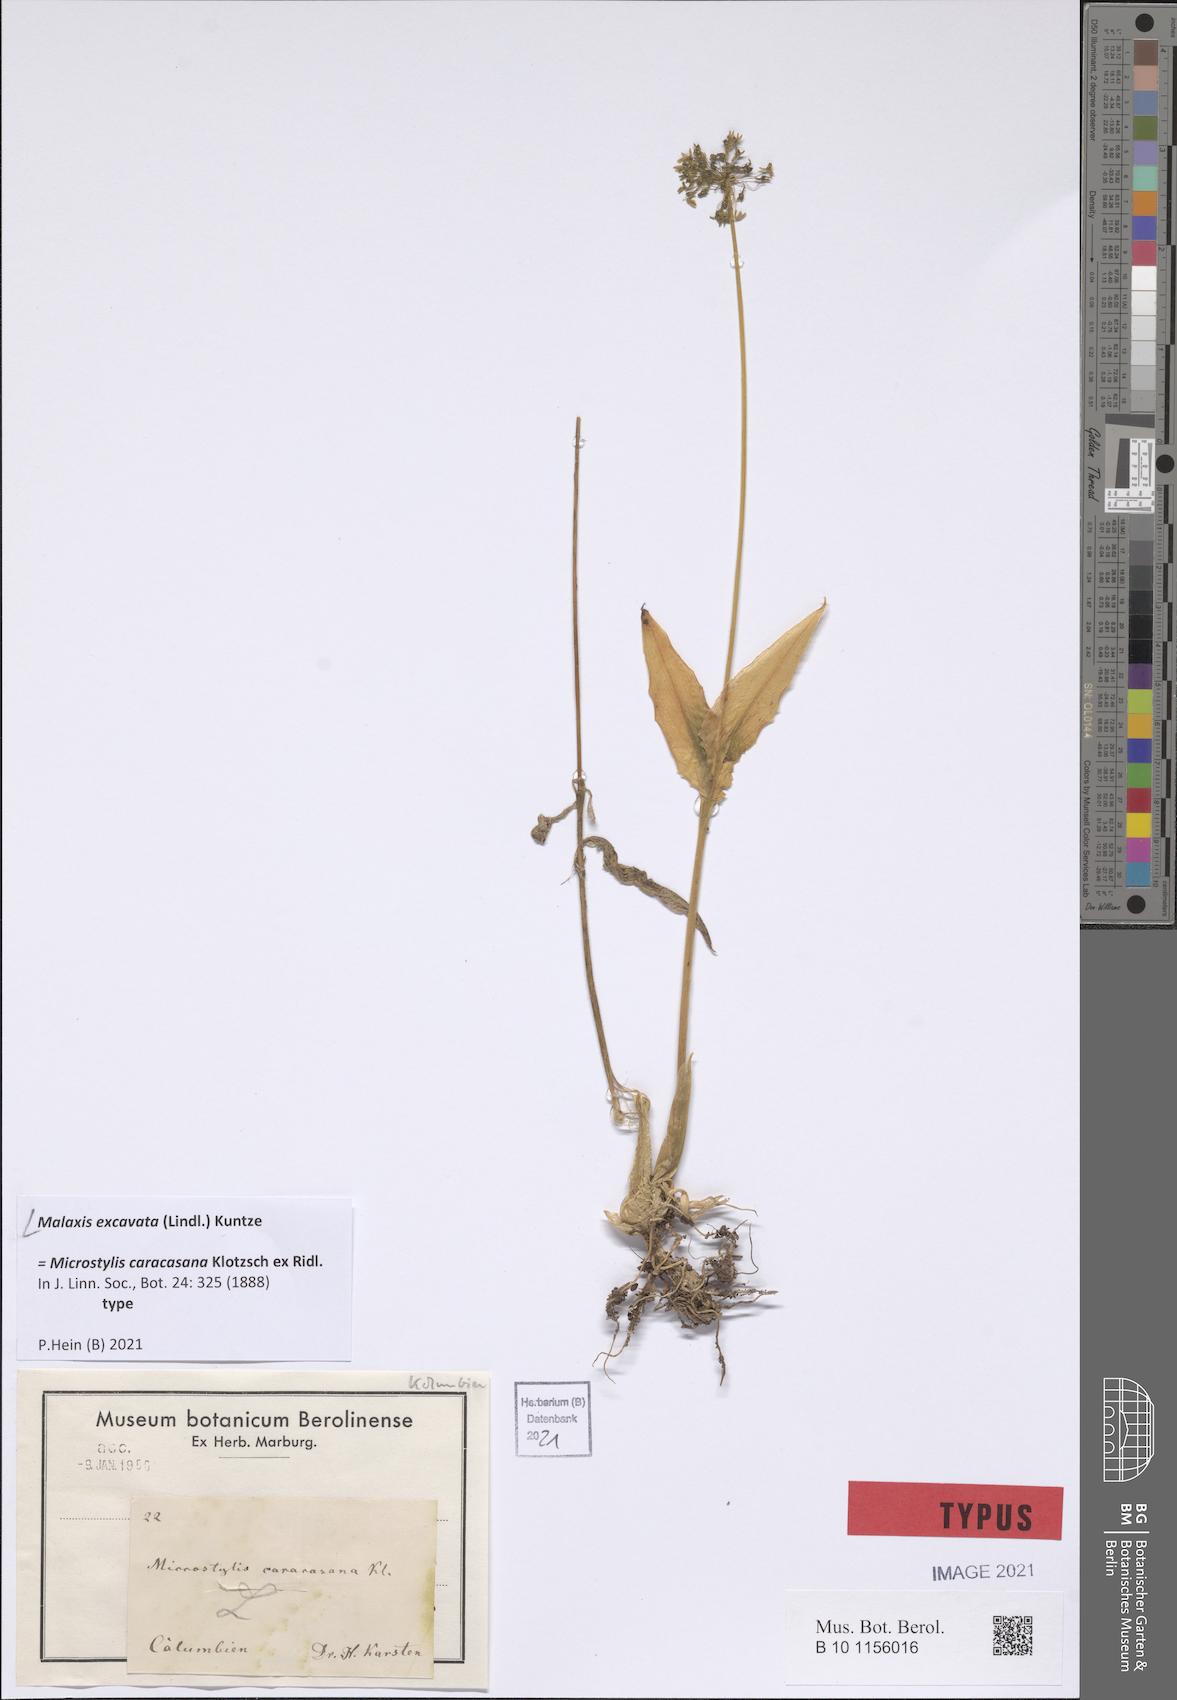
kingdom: Plantae
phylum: Tracheophyta
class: Liliopsida
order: Asparagales
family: Orchidaceae
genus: Malaxis
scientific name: Malaxis excavata
